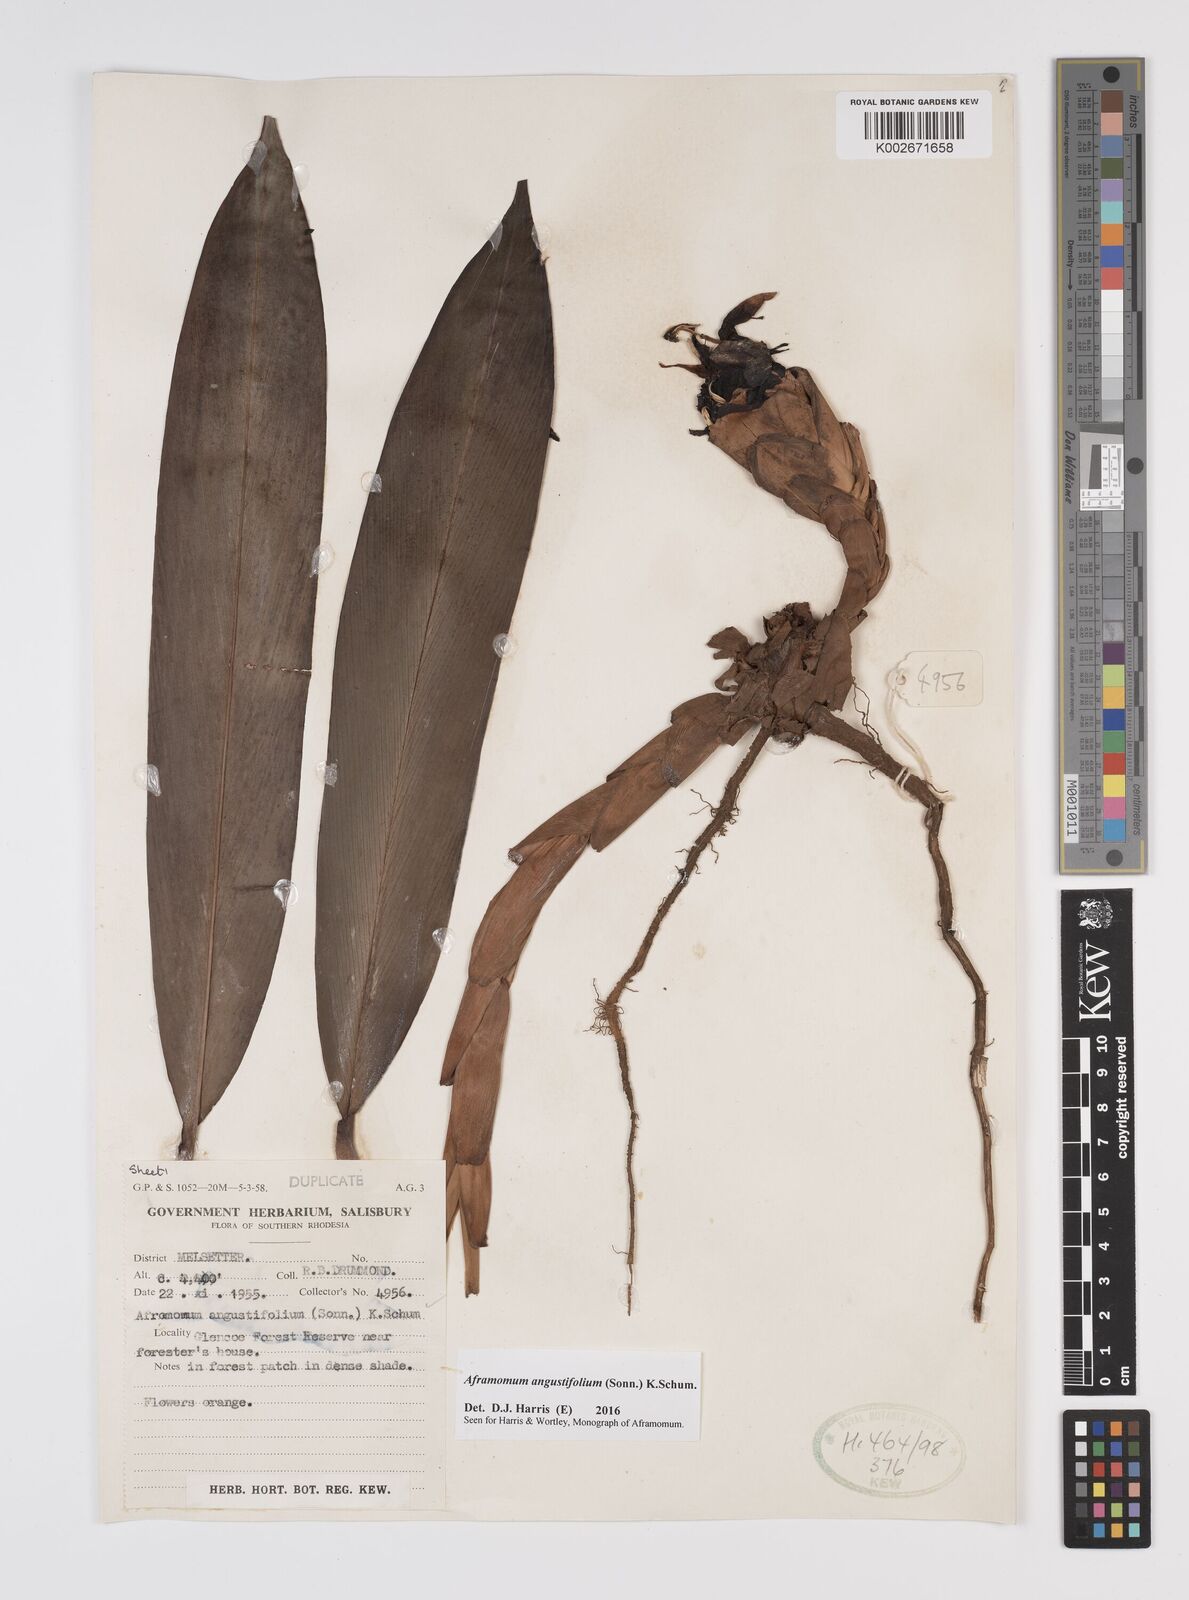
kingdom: Plantae
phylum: Tracheophyta
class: Liliopsida
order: Zingiberales
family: Zingiberaceae
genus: Aframomum
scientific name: Aframomum
